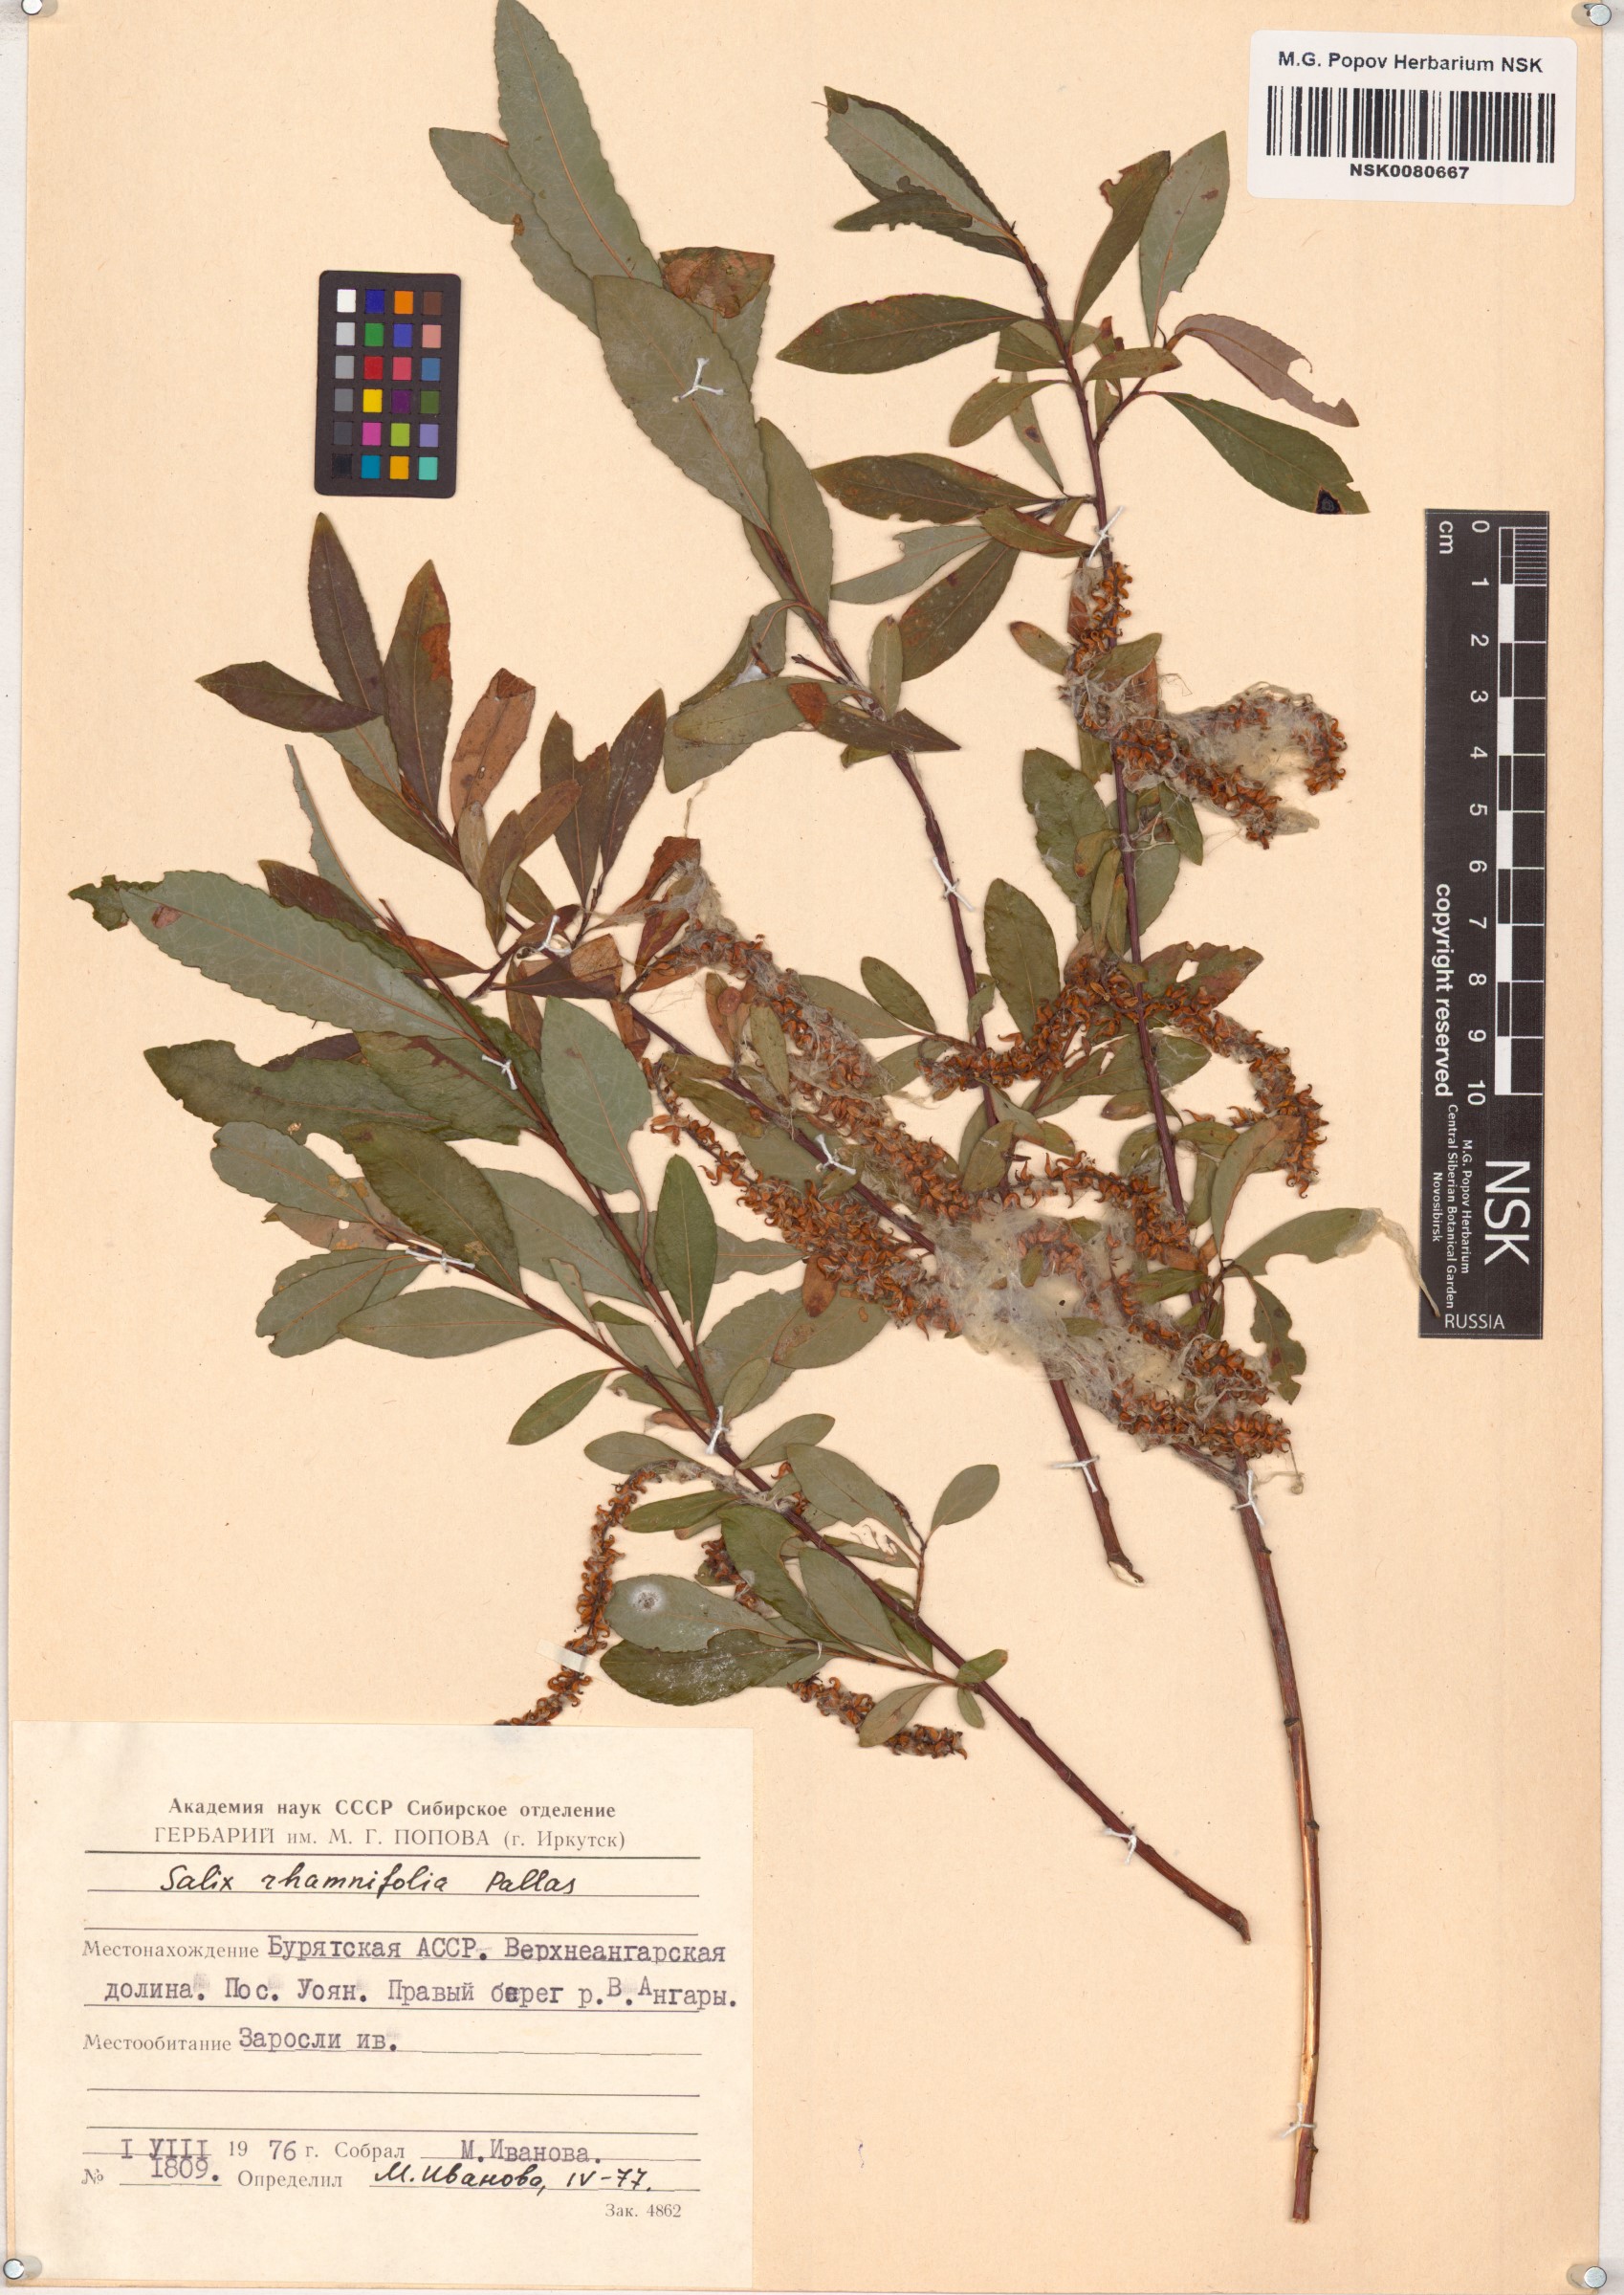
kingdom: Plantae
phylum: Tracheophyta
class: Magnoliopsida
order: Malpighiales
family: Salicaceae
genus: Salix
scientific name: Salix rhamnifolia
